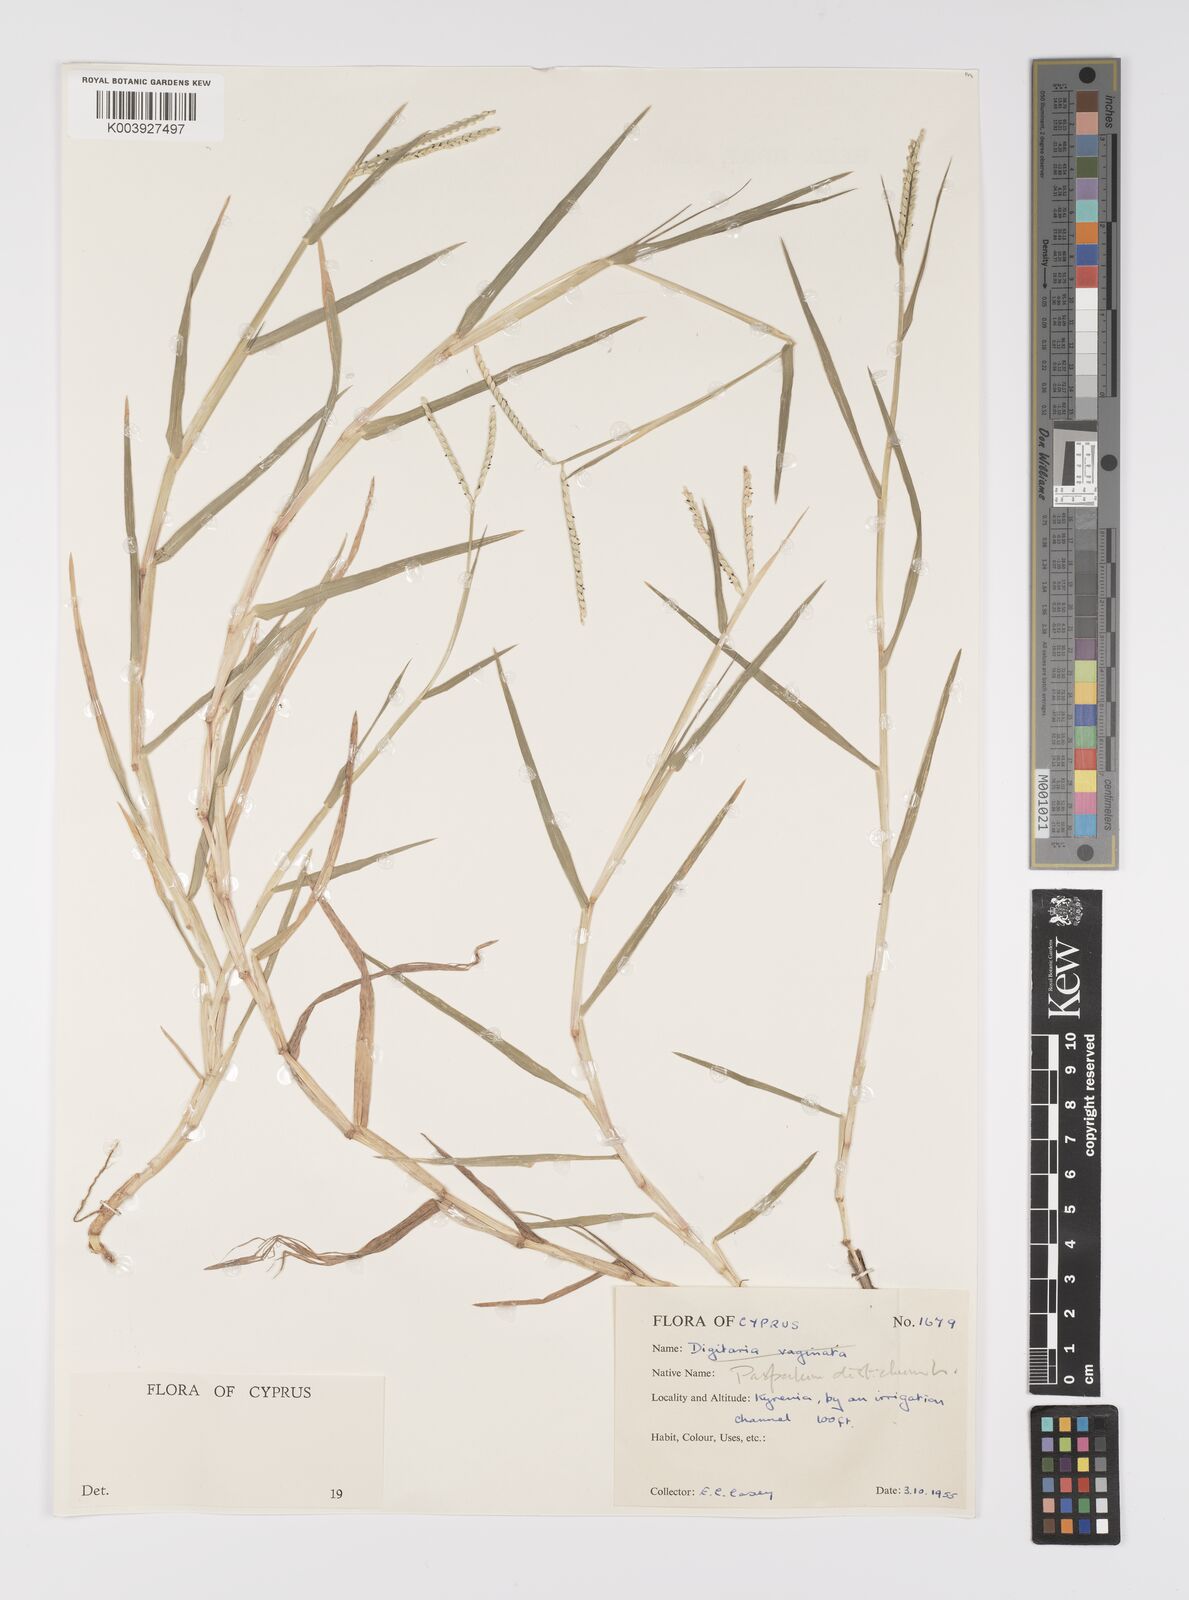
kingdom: Plantae
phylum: Tracheophyta
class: Liliopsida
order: Poales
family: Poaceae
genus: Paspalum
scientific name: Paspalum distichum
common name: Knotgrass
